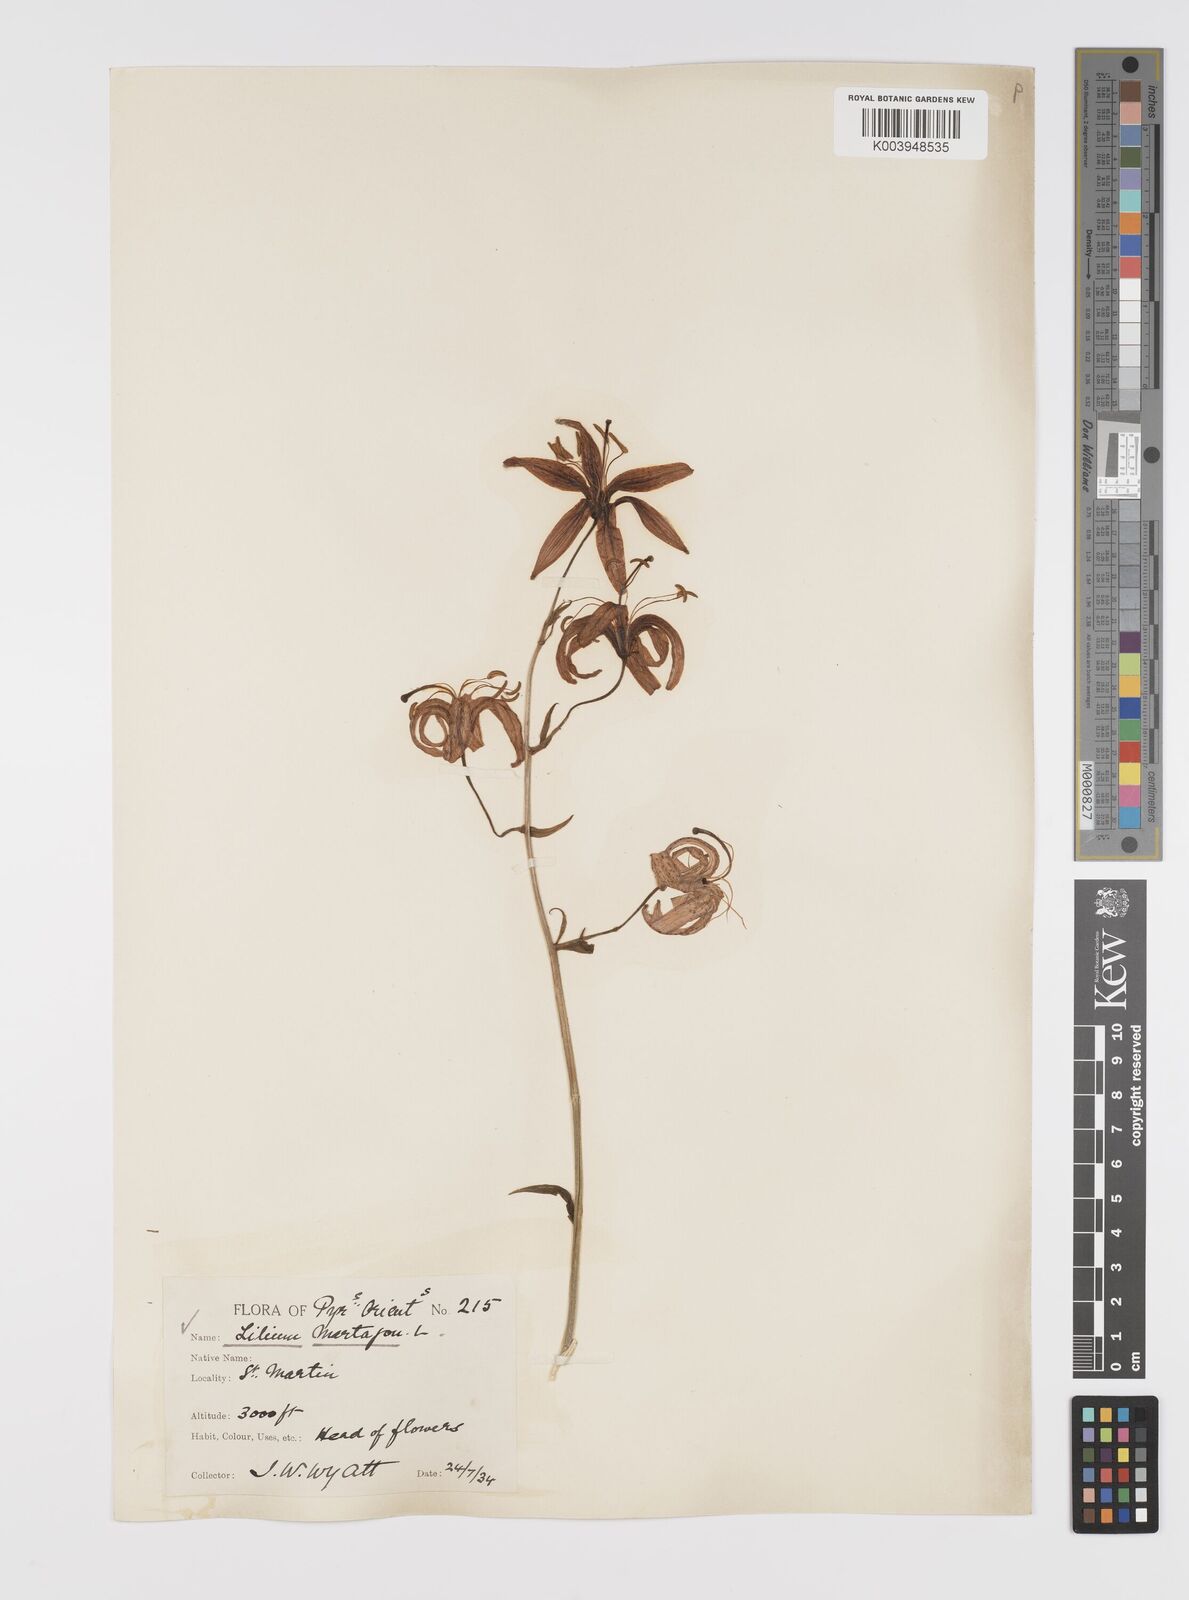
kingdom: Plantae
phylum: Tracheophyta
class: Liliopsida
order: Liliales
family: Liliaceae
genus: Lilium
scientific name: Lilium martagon
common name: Martagon lily
